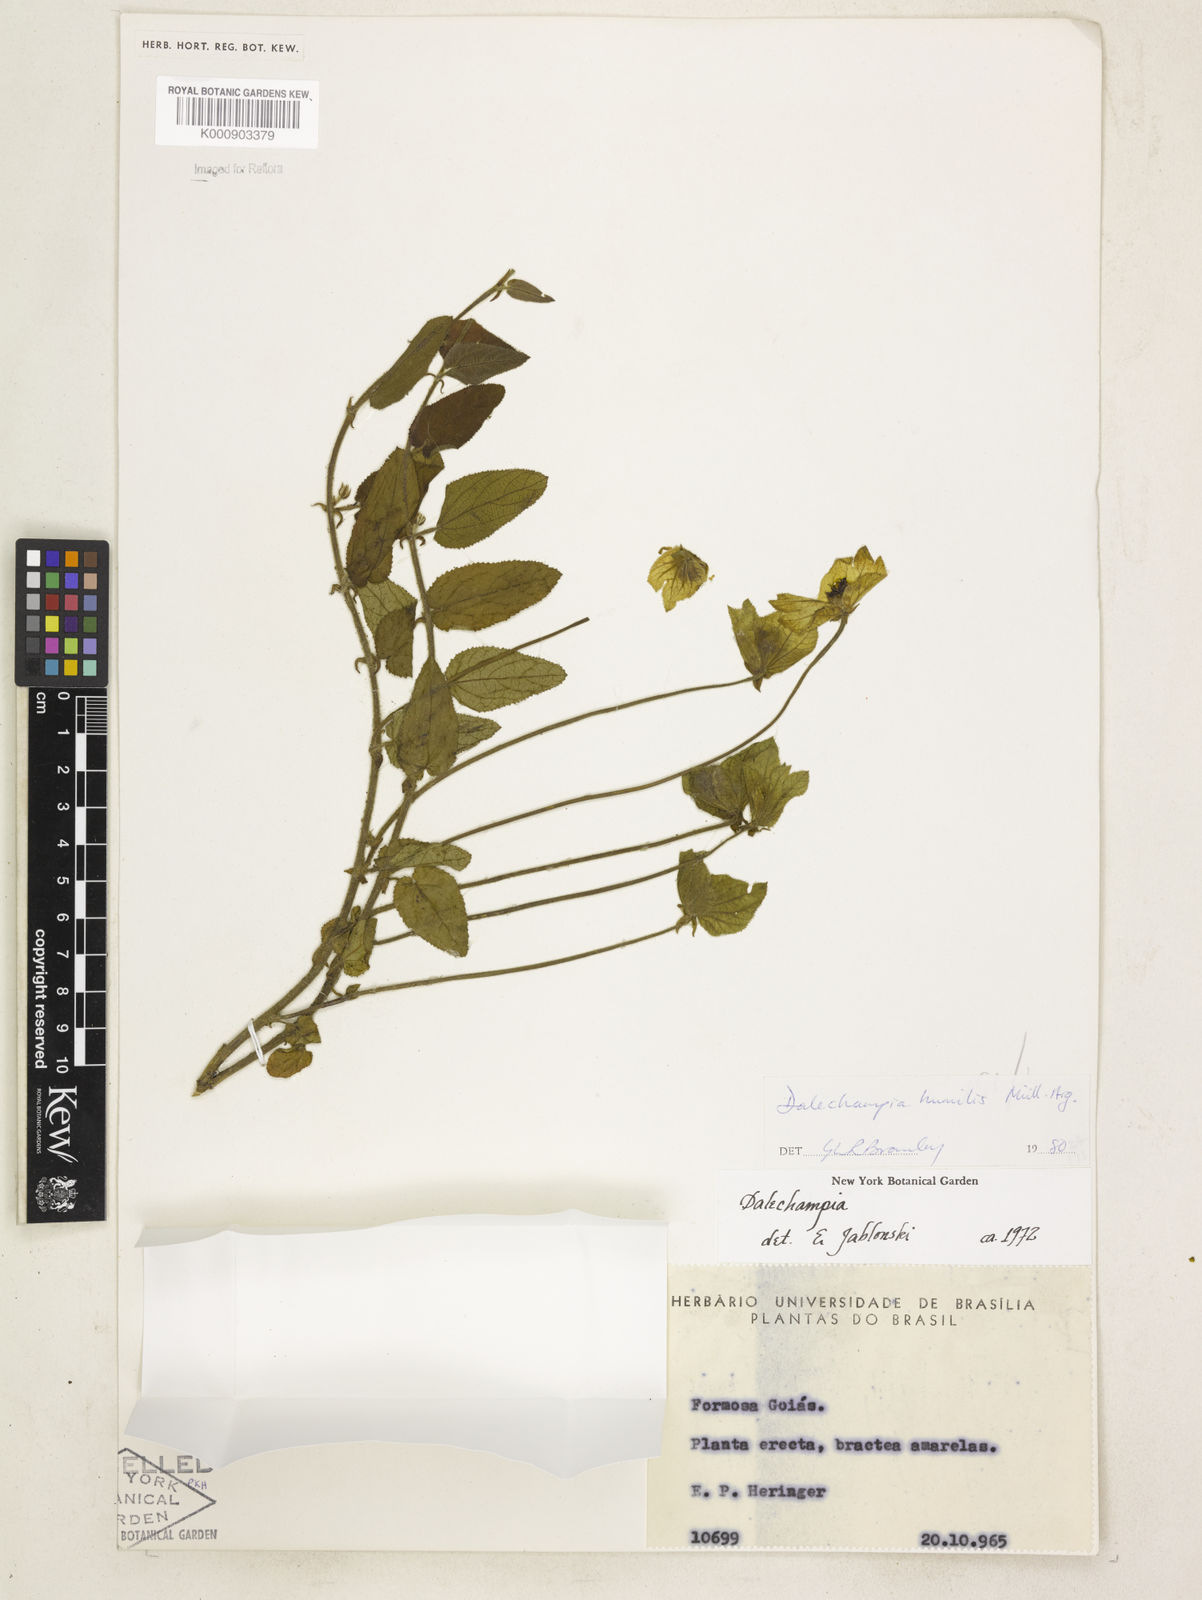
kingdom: Plantae
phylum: Tracheophyta
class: Magnoliopsida
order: Malpighiales
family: Euphorbiaceae
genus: Dalechampia
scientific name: Dalechampia
